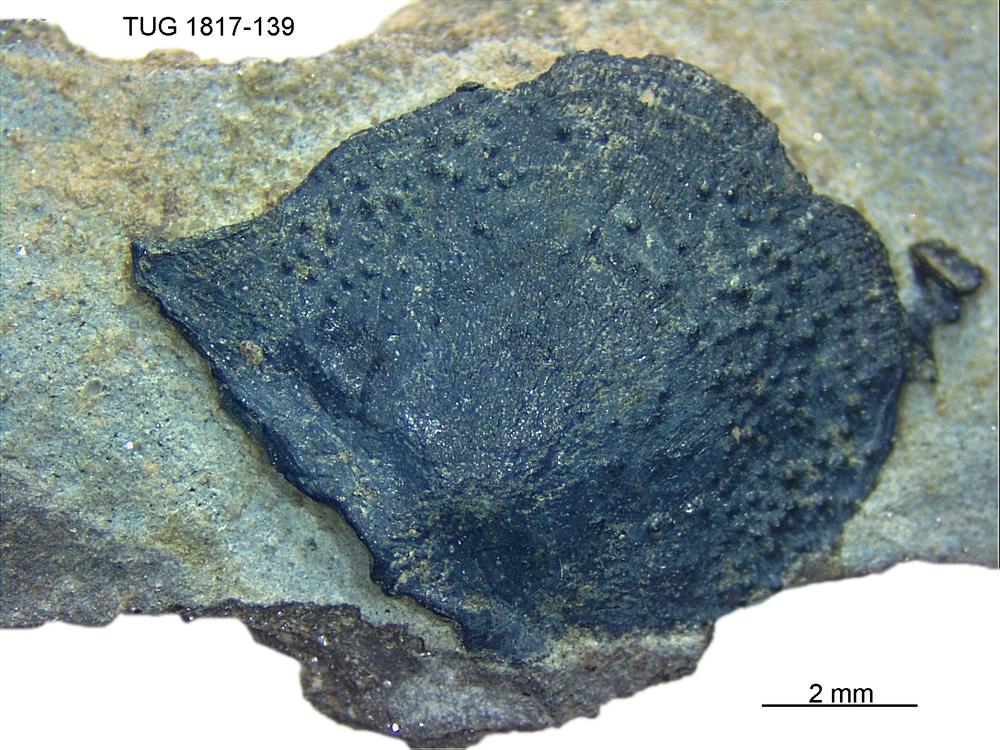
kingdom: Animalia
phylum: Chordata
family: Coccosteidae
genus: Millerosteus
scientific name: Millerosteus minor
